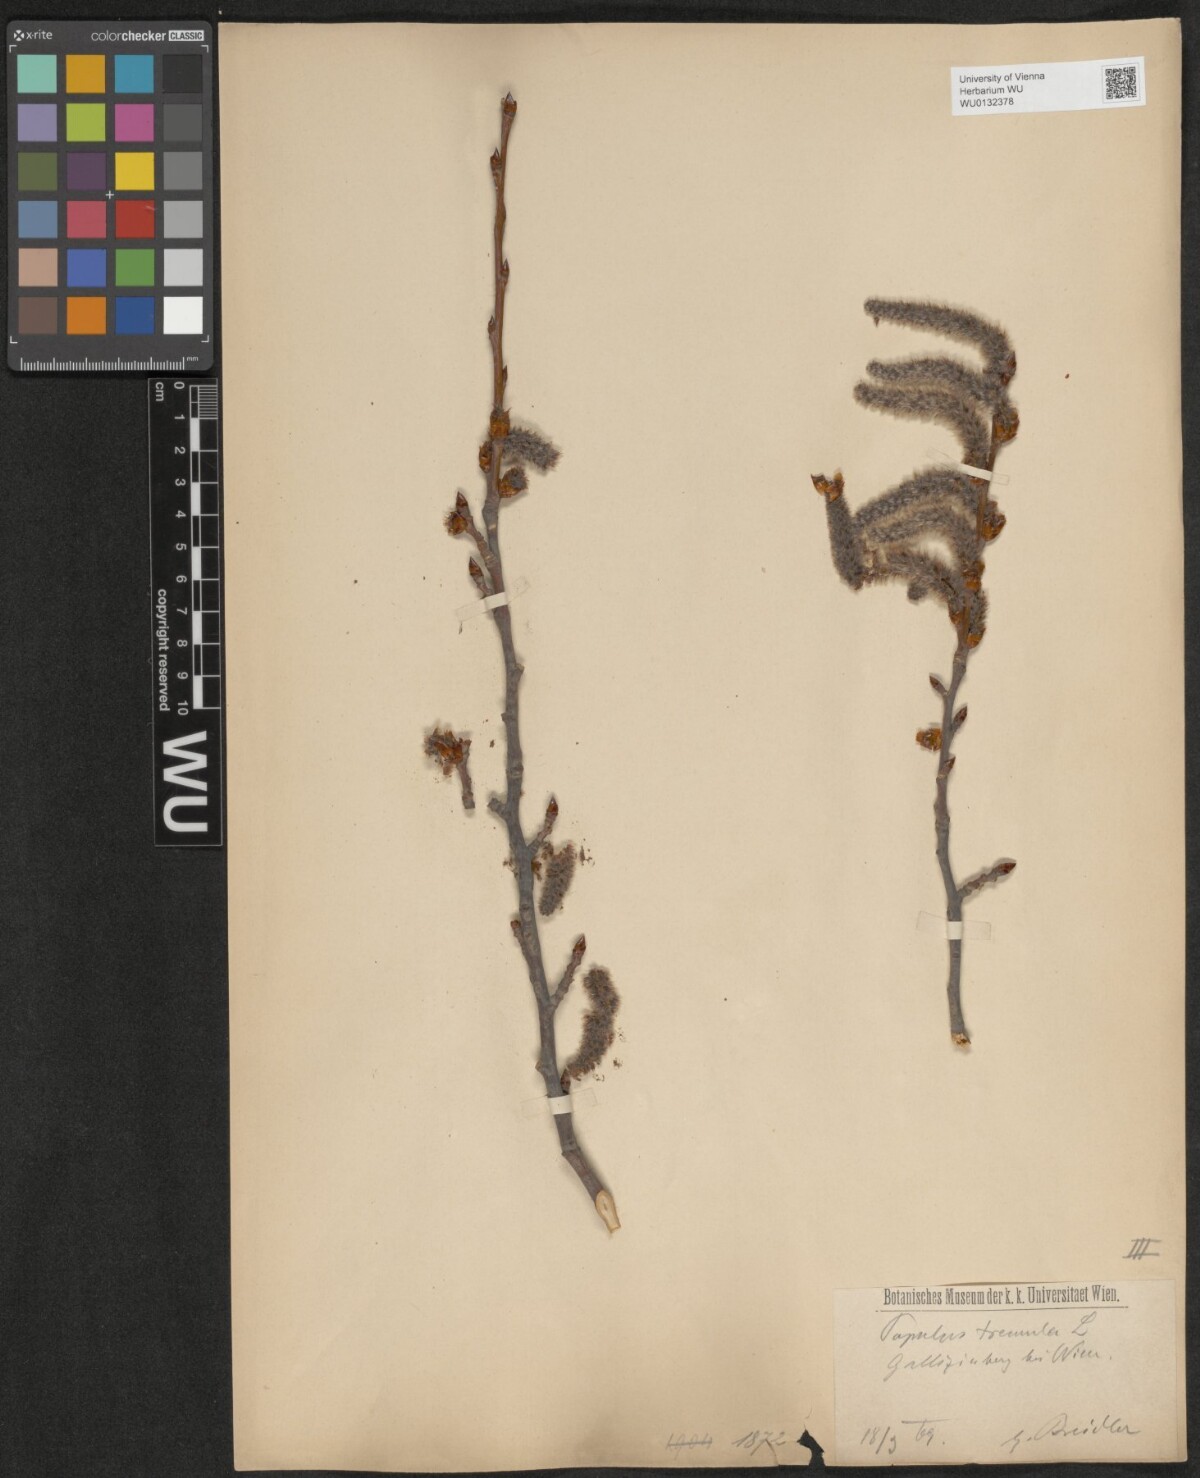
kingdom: Plantae
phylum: Tracheophyta
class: Magnoliopsida
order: Malpighiales
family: Salicaceae
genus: Populus
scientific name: Populus tremula
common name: European aspen
